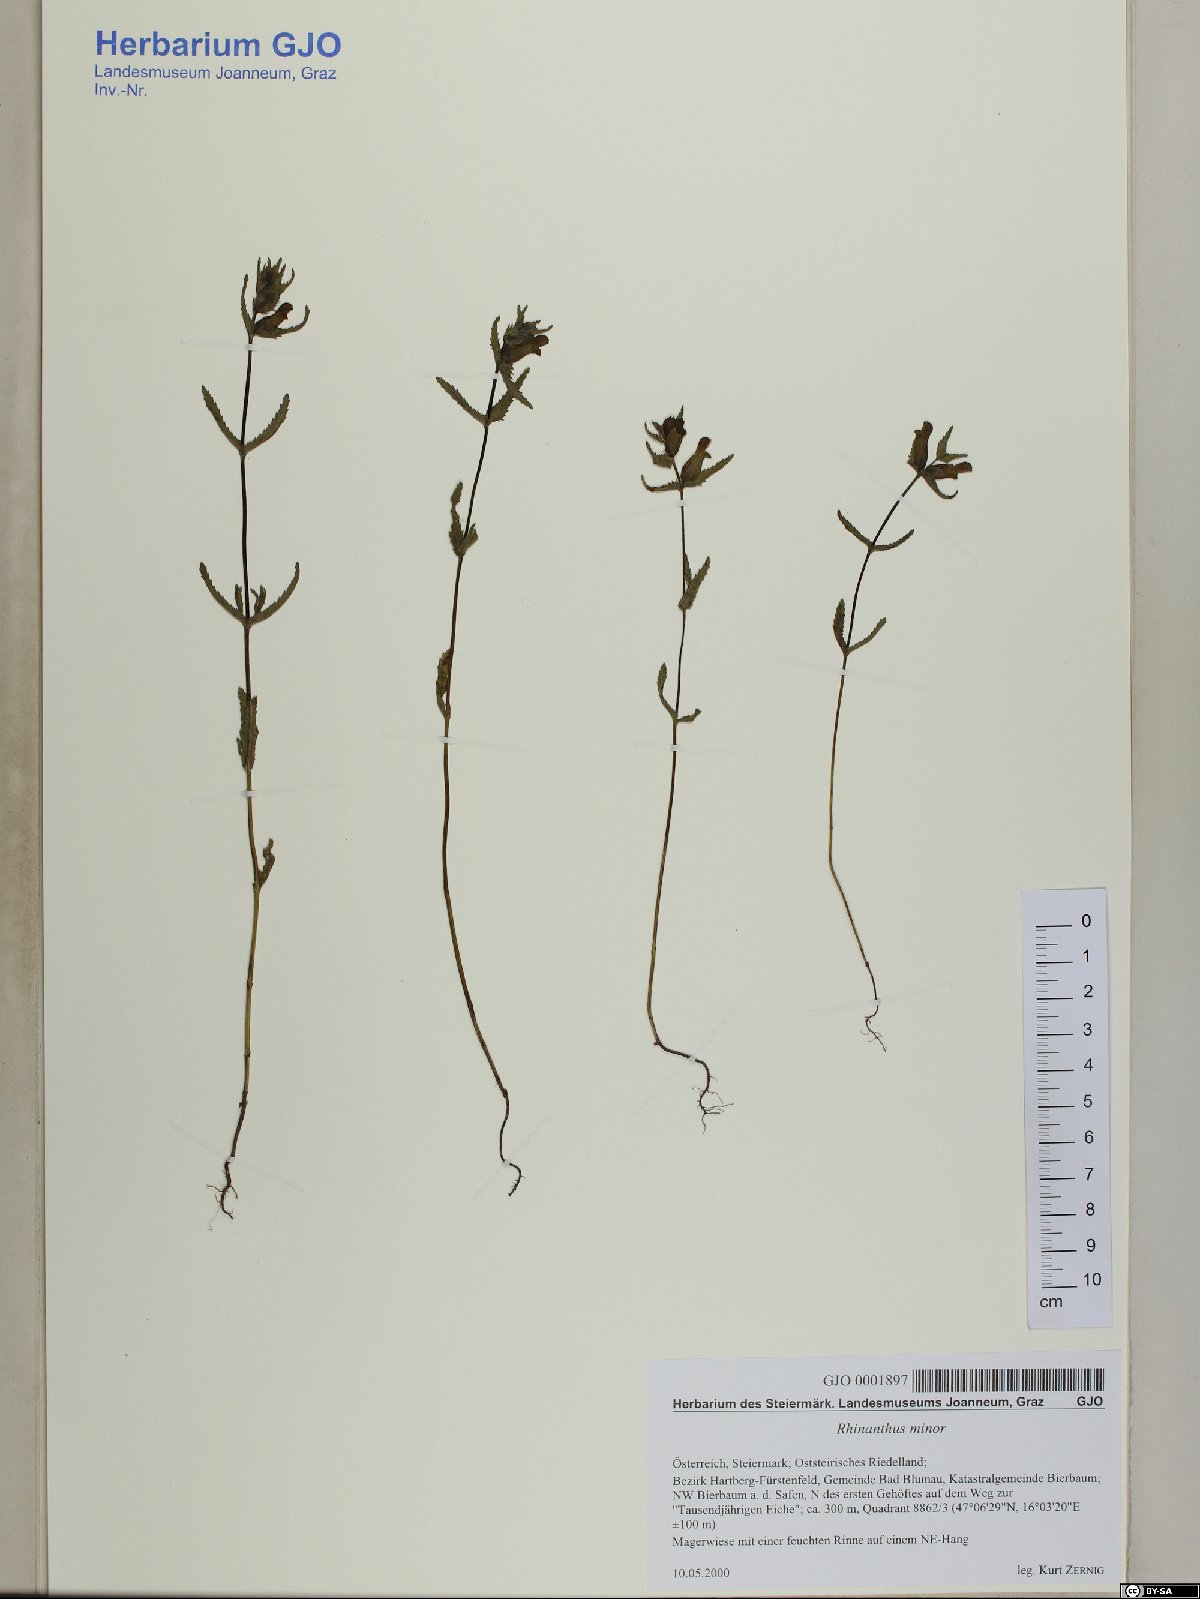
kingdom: Plantae
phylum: Tracheophyta
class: Magnoliopsida
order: Lamiales
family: Orobanchaceae
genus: Rhinanthus
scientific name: Rhinanthus minor
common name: Yellow-rattle
